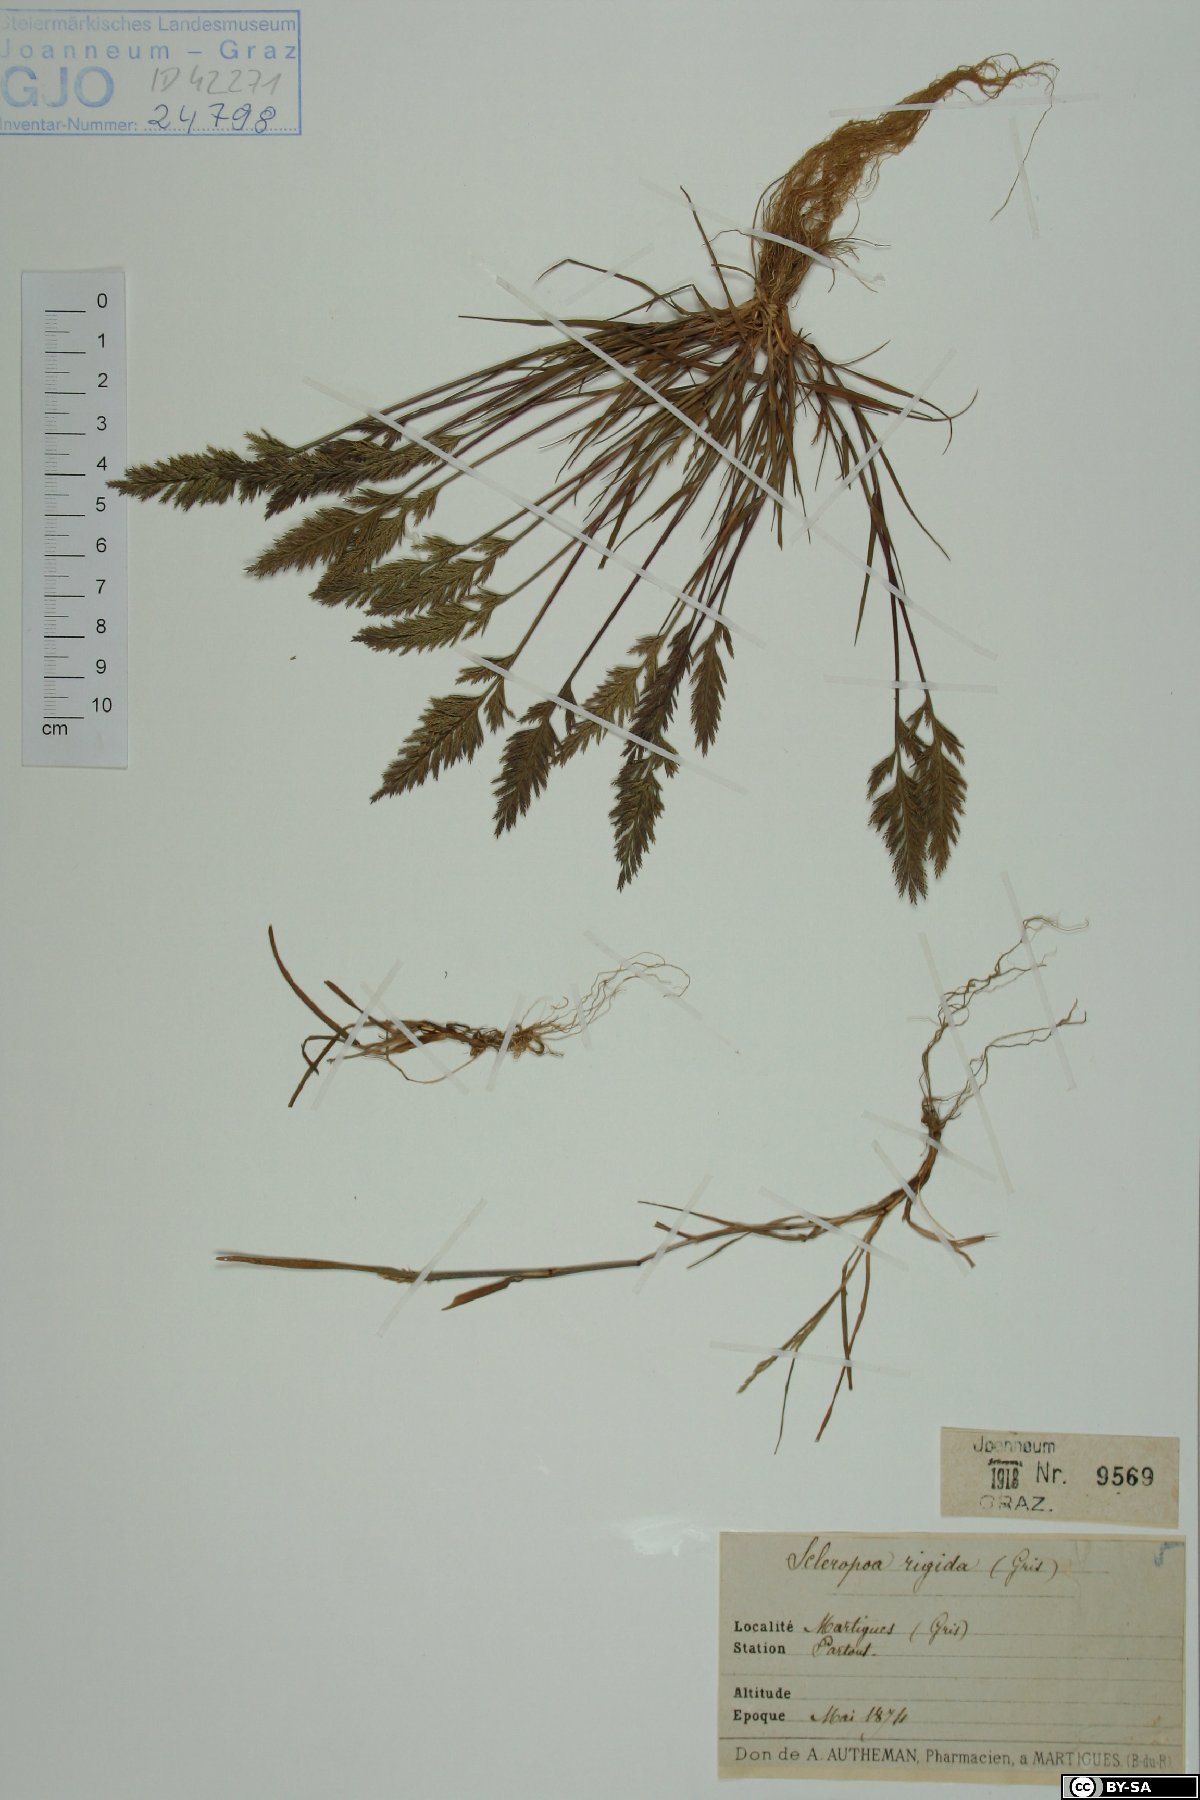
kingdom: Plantae
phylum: Tracheophyta
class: Liliopsida
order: Poales
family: Poaceae
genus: Catapodium
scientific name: Catapodium rigidum
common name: Fern-grass
